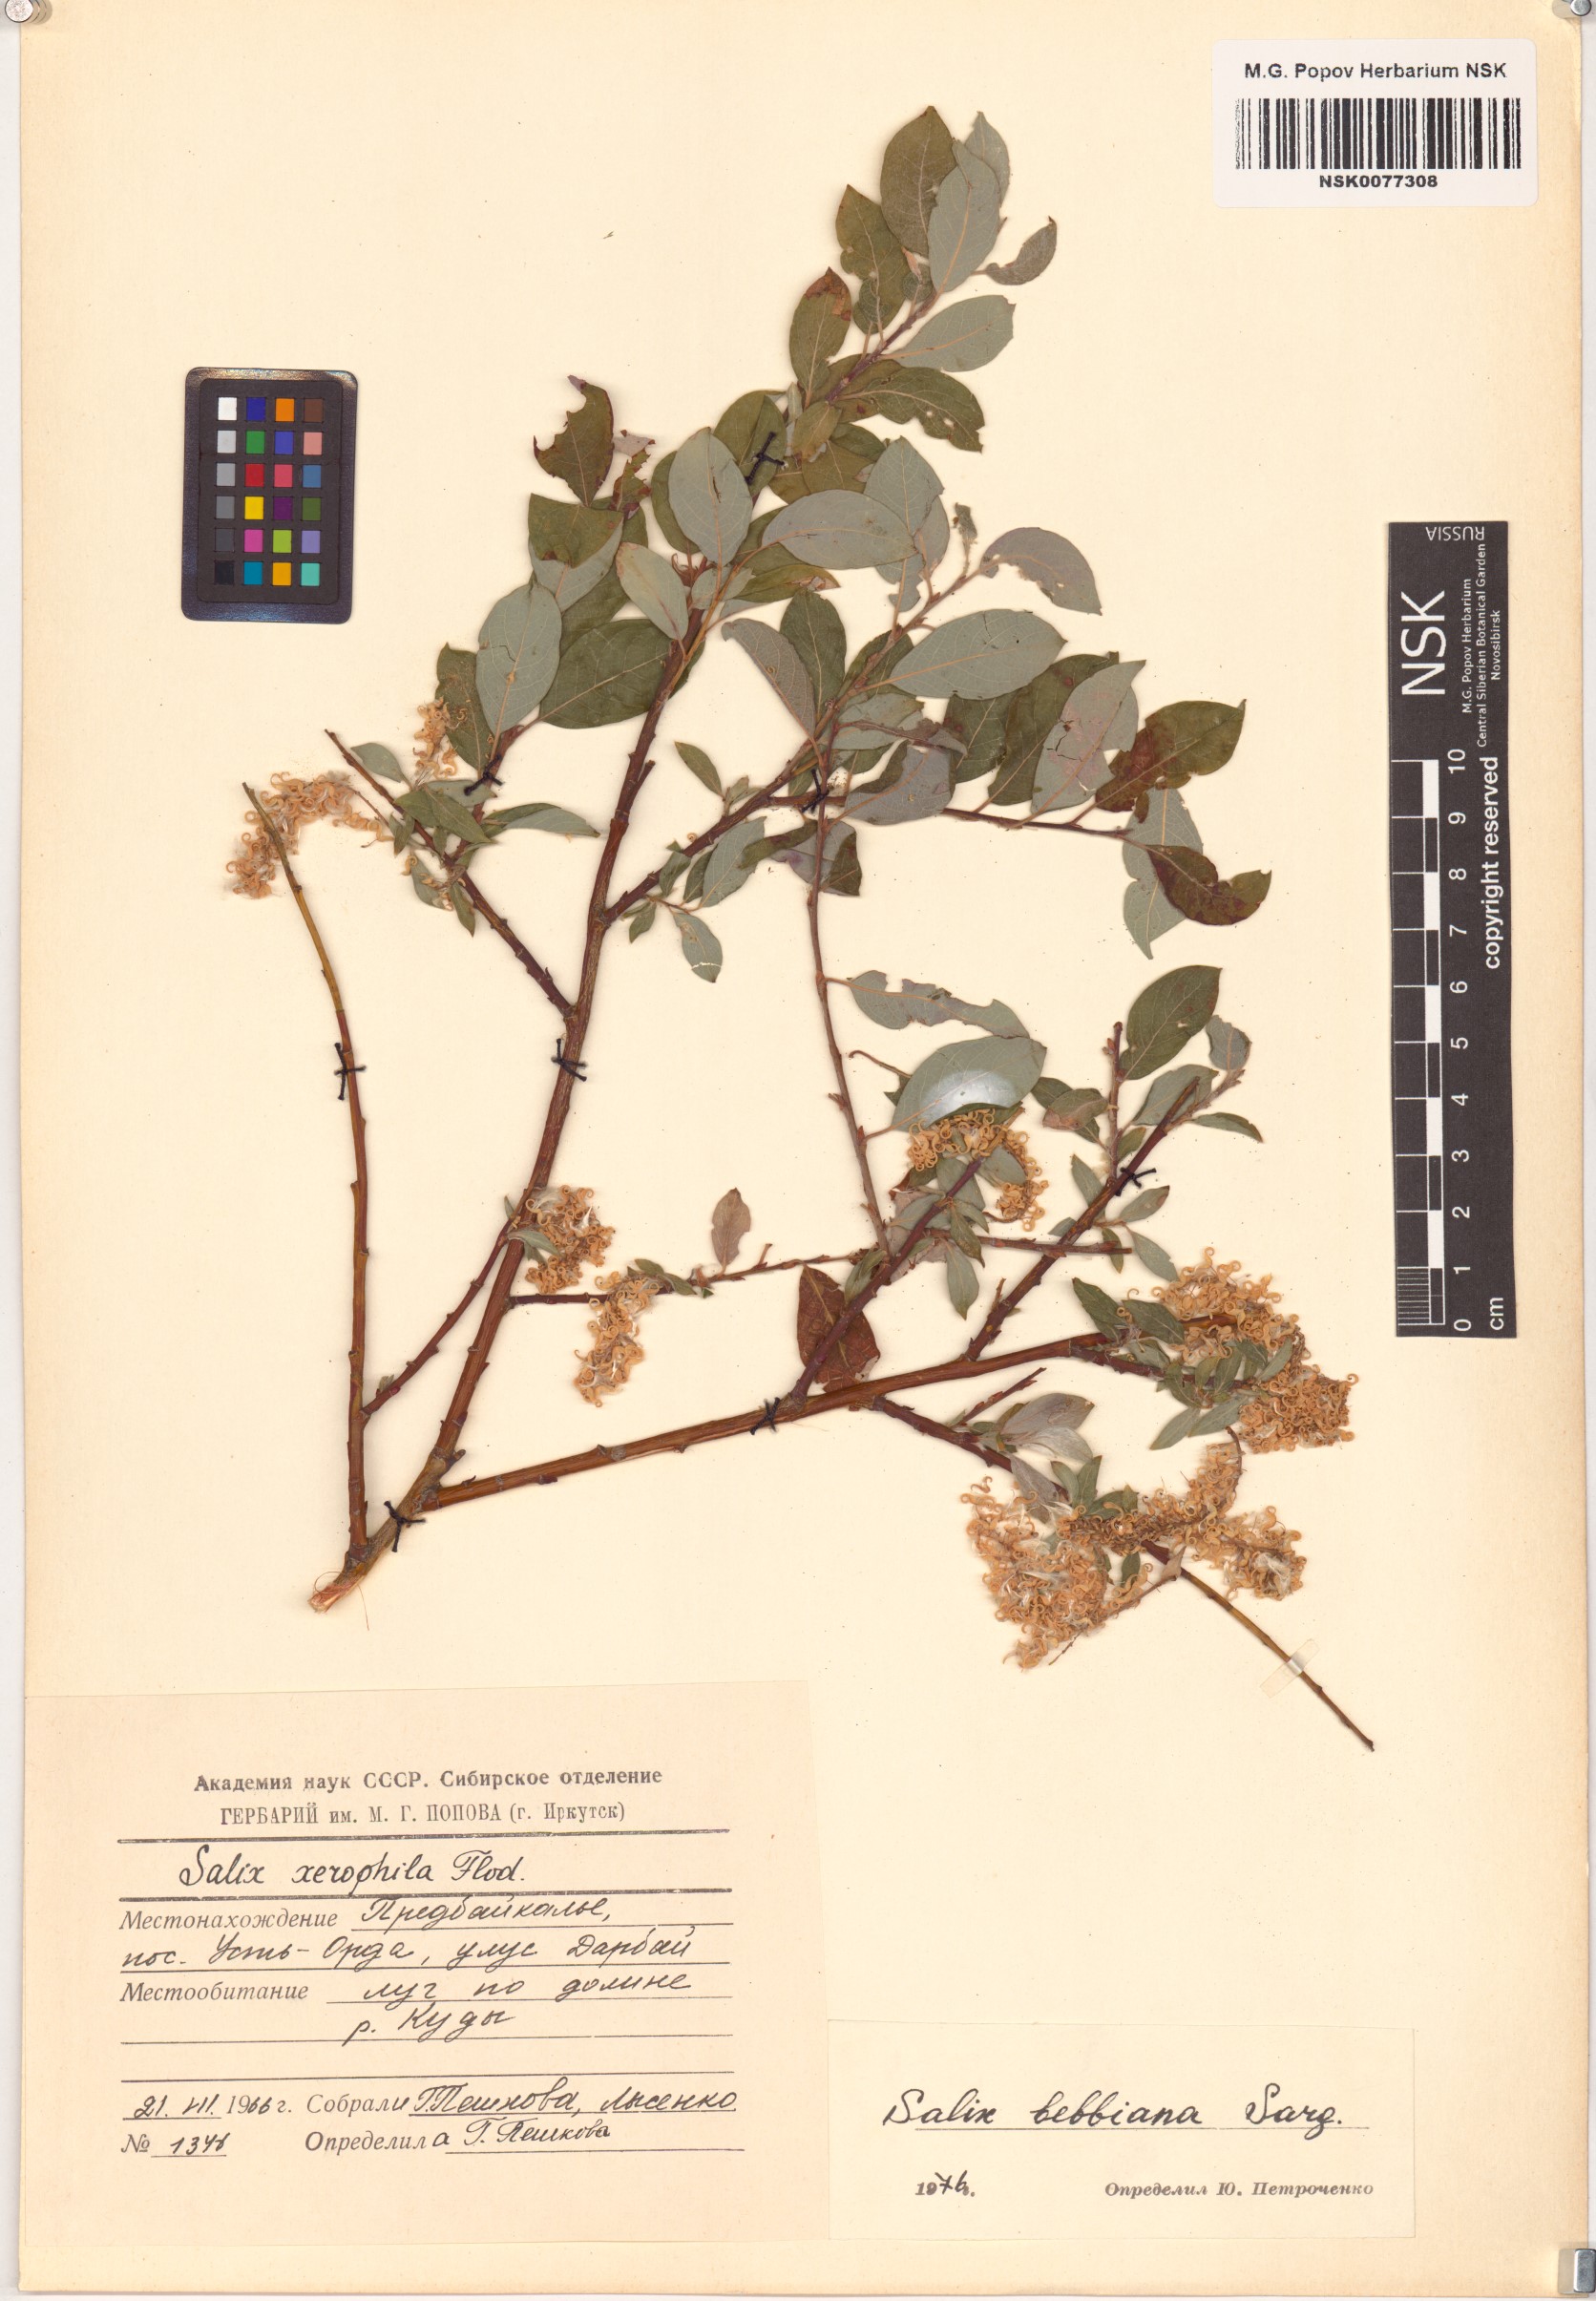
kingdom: Plantae
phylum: Tracheophyta
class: Magnoliopsida
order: Malpighiales
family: Salicaceae
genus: Salix
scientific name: Salix bebbiana
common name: Bebb's willow
